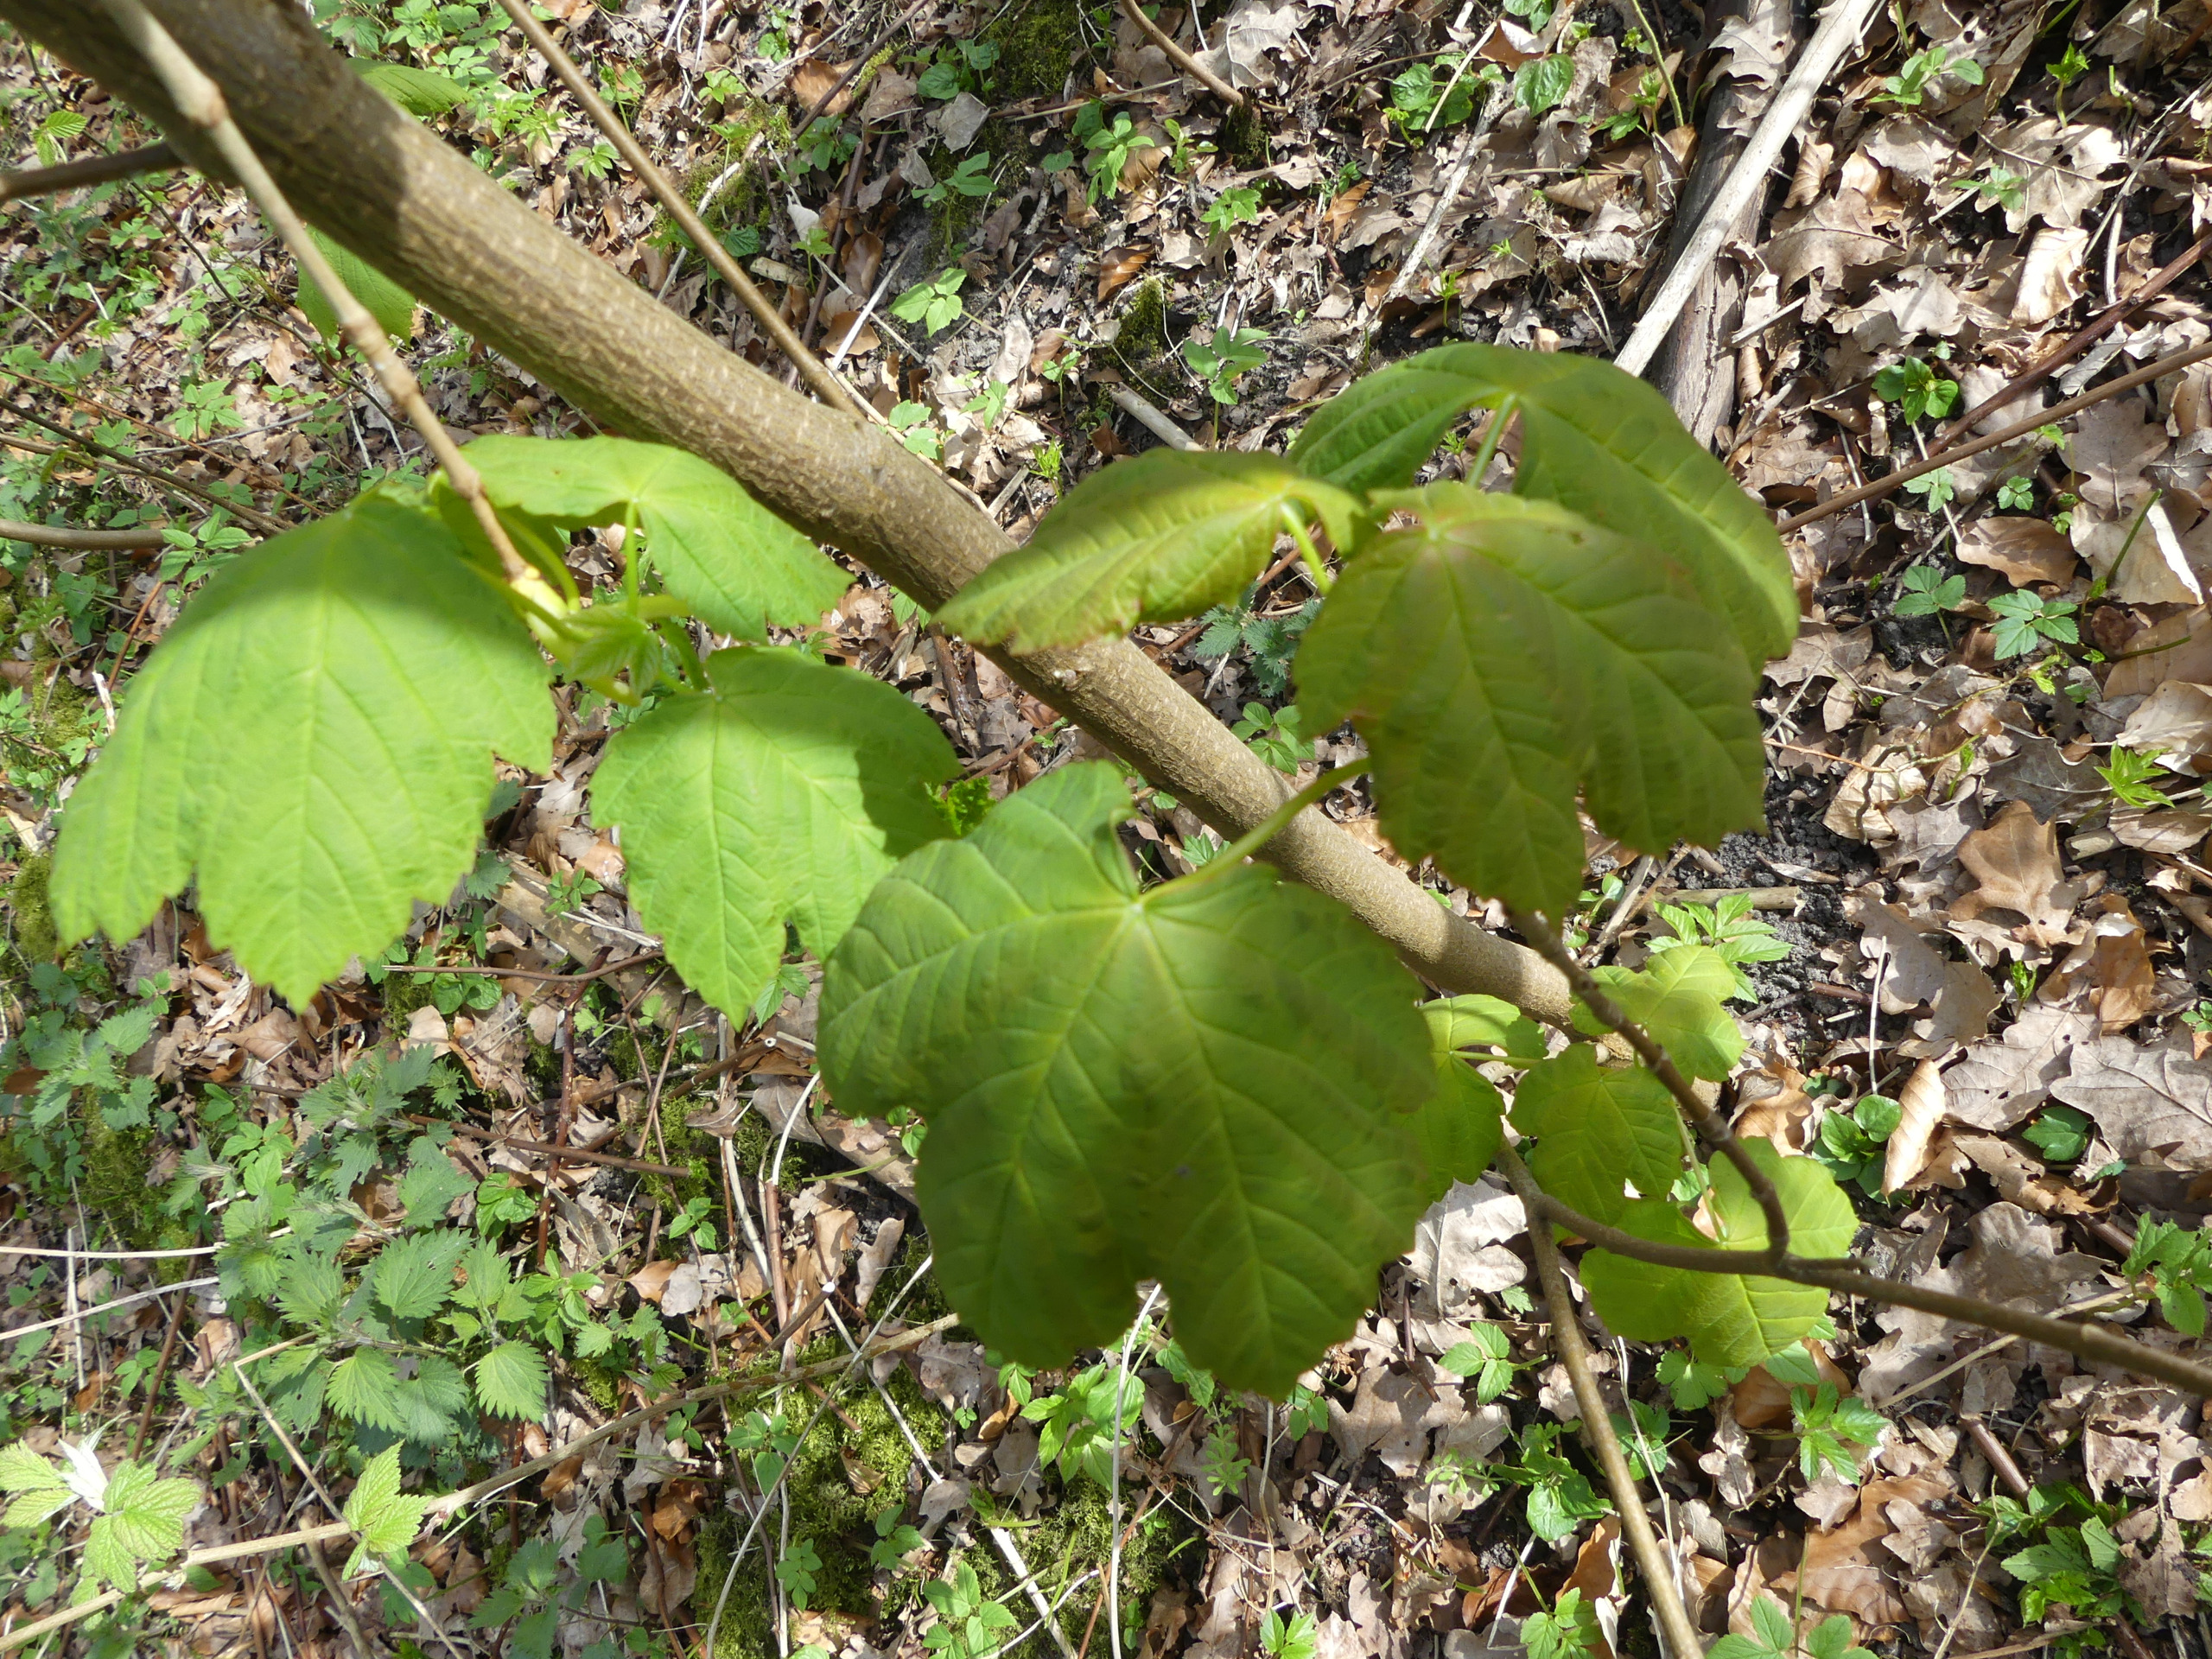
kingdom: Plantae
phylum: Tracheophyta
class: Magnoliopsida
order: Sapindales
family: Sapindaceae
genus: Acer
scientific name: Acer pseudoplatanus
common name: Ahorn
